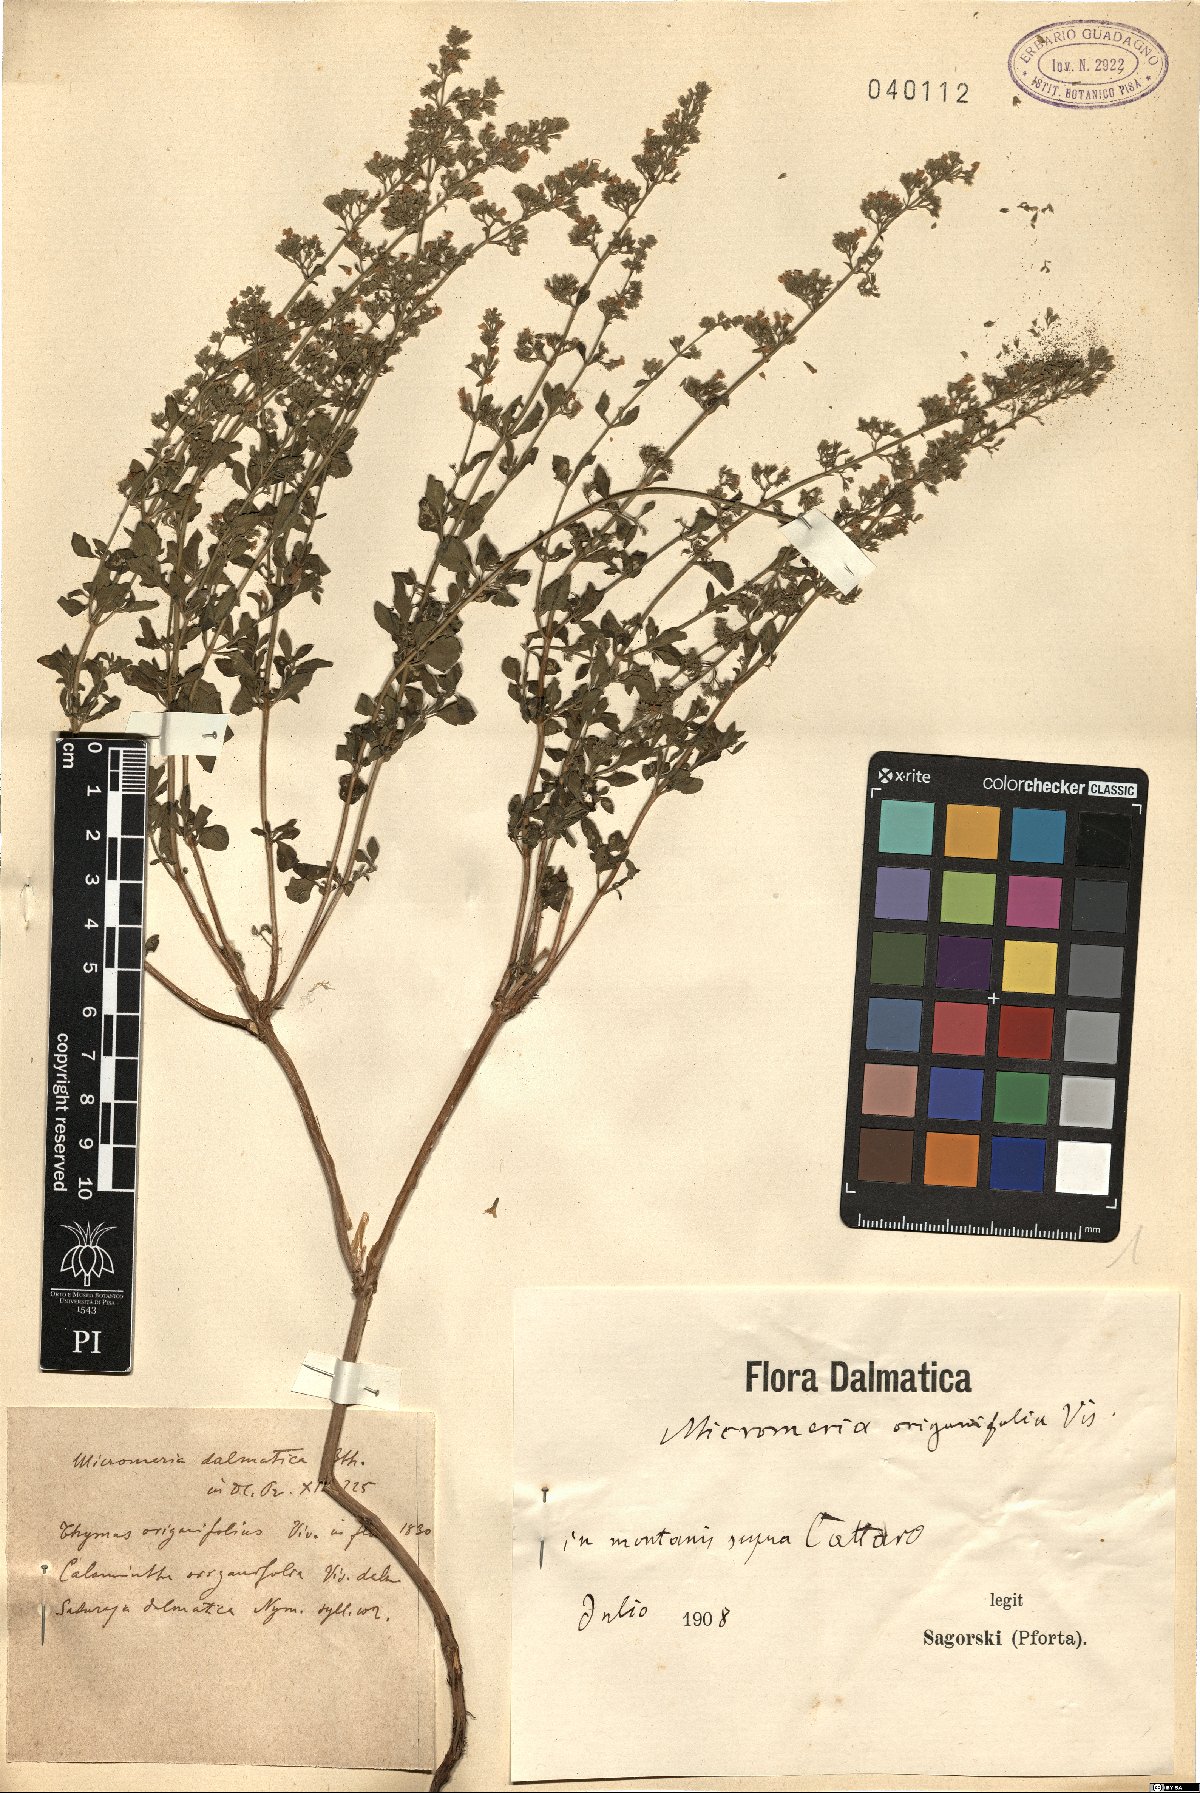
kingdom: Plantae
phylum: Tracheophyta
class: Magnoliopsida
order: Lamiales
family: Lamiaceae
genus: Clinopodium
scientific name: Clinopodium dalmaticum
